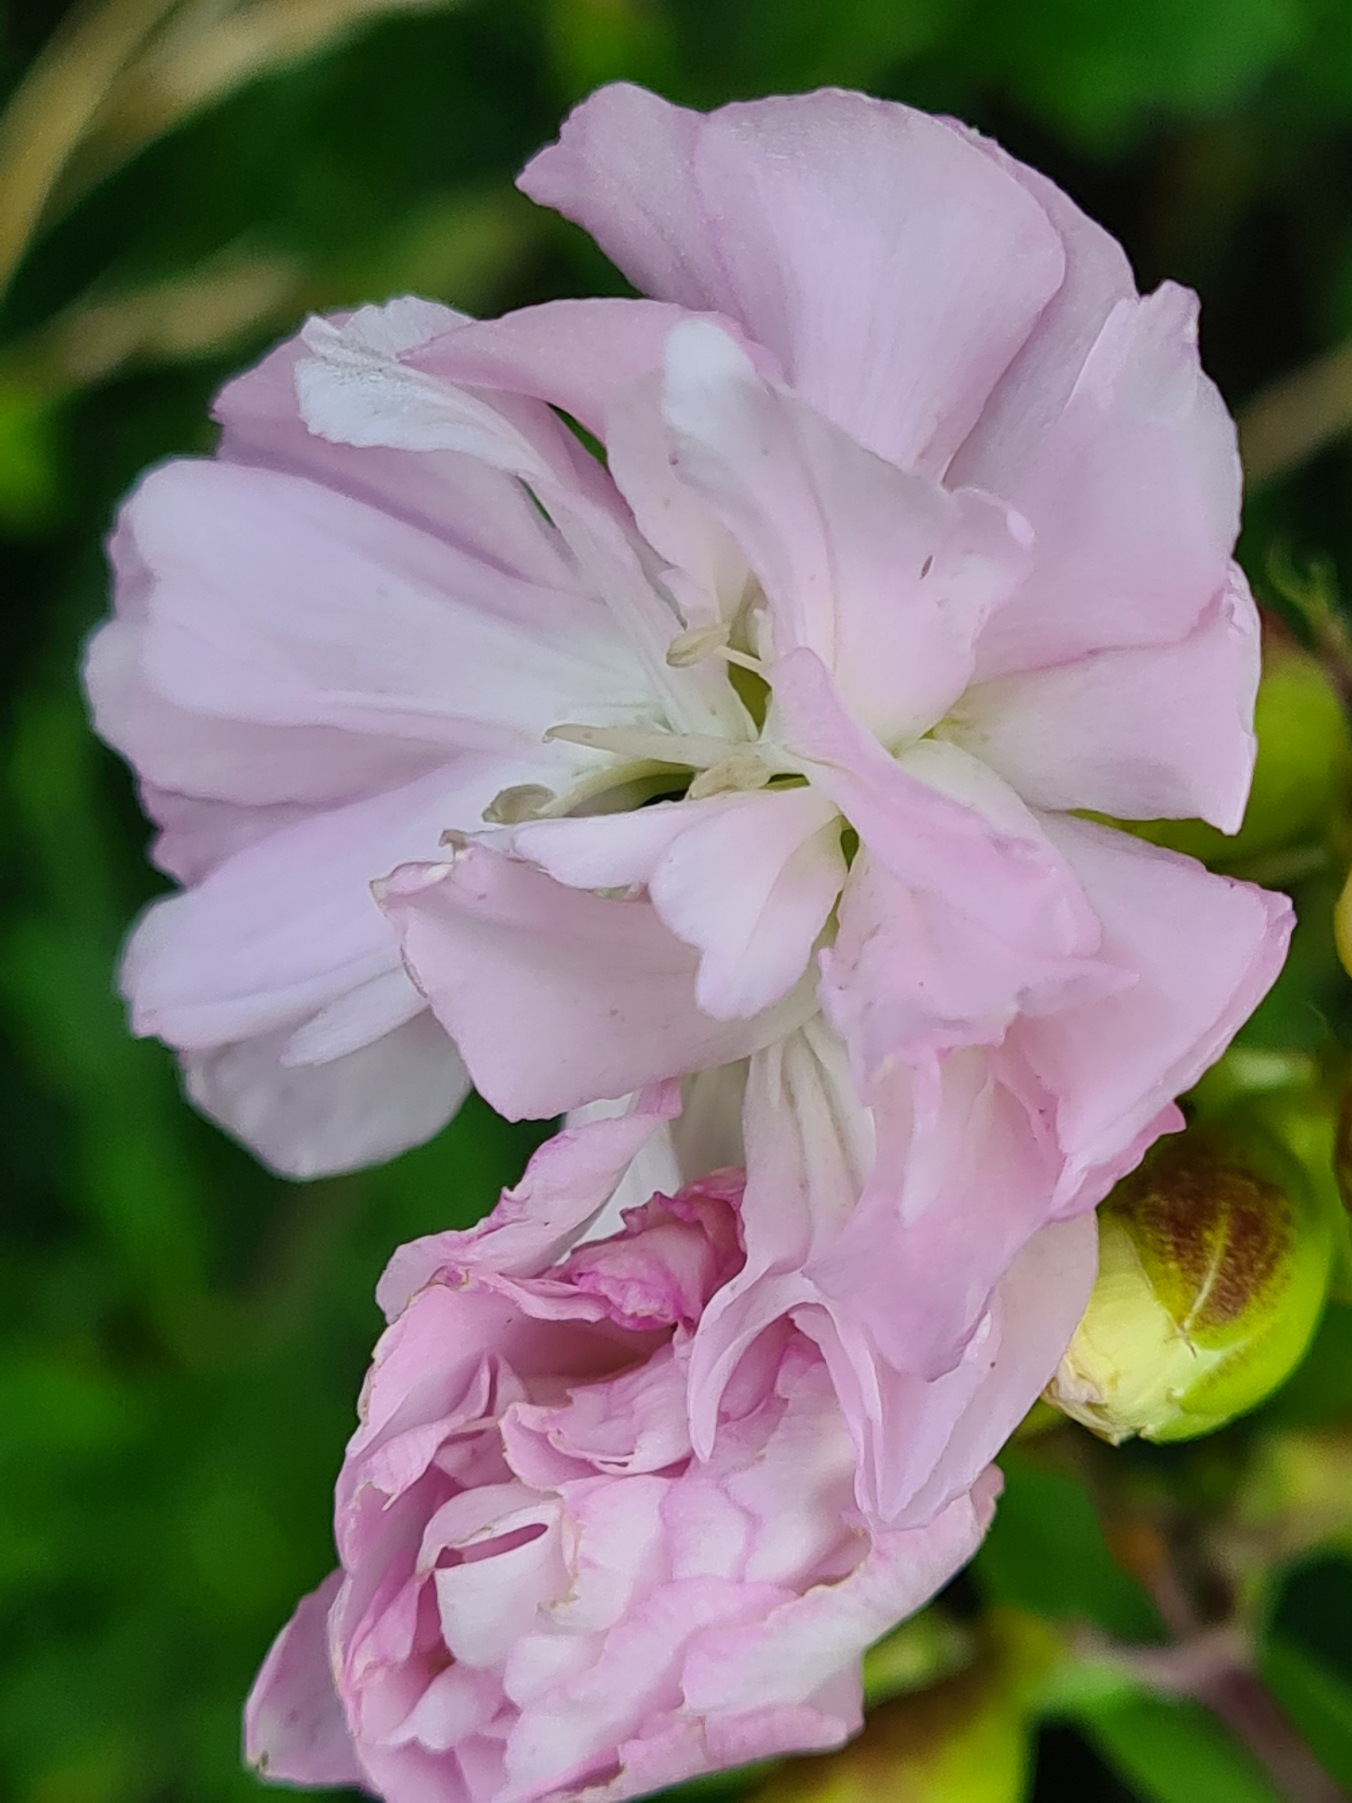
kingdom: Plantae
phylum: Tracheophyta
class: Magnoliopsida
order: Caryophyllales
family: Caryophyllaceae
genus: Saponaria
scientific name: Saponaria officinalis
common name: Sæbeurt
